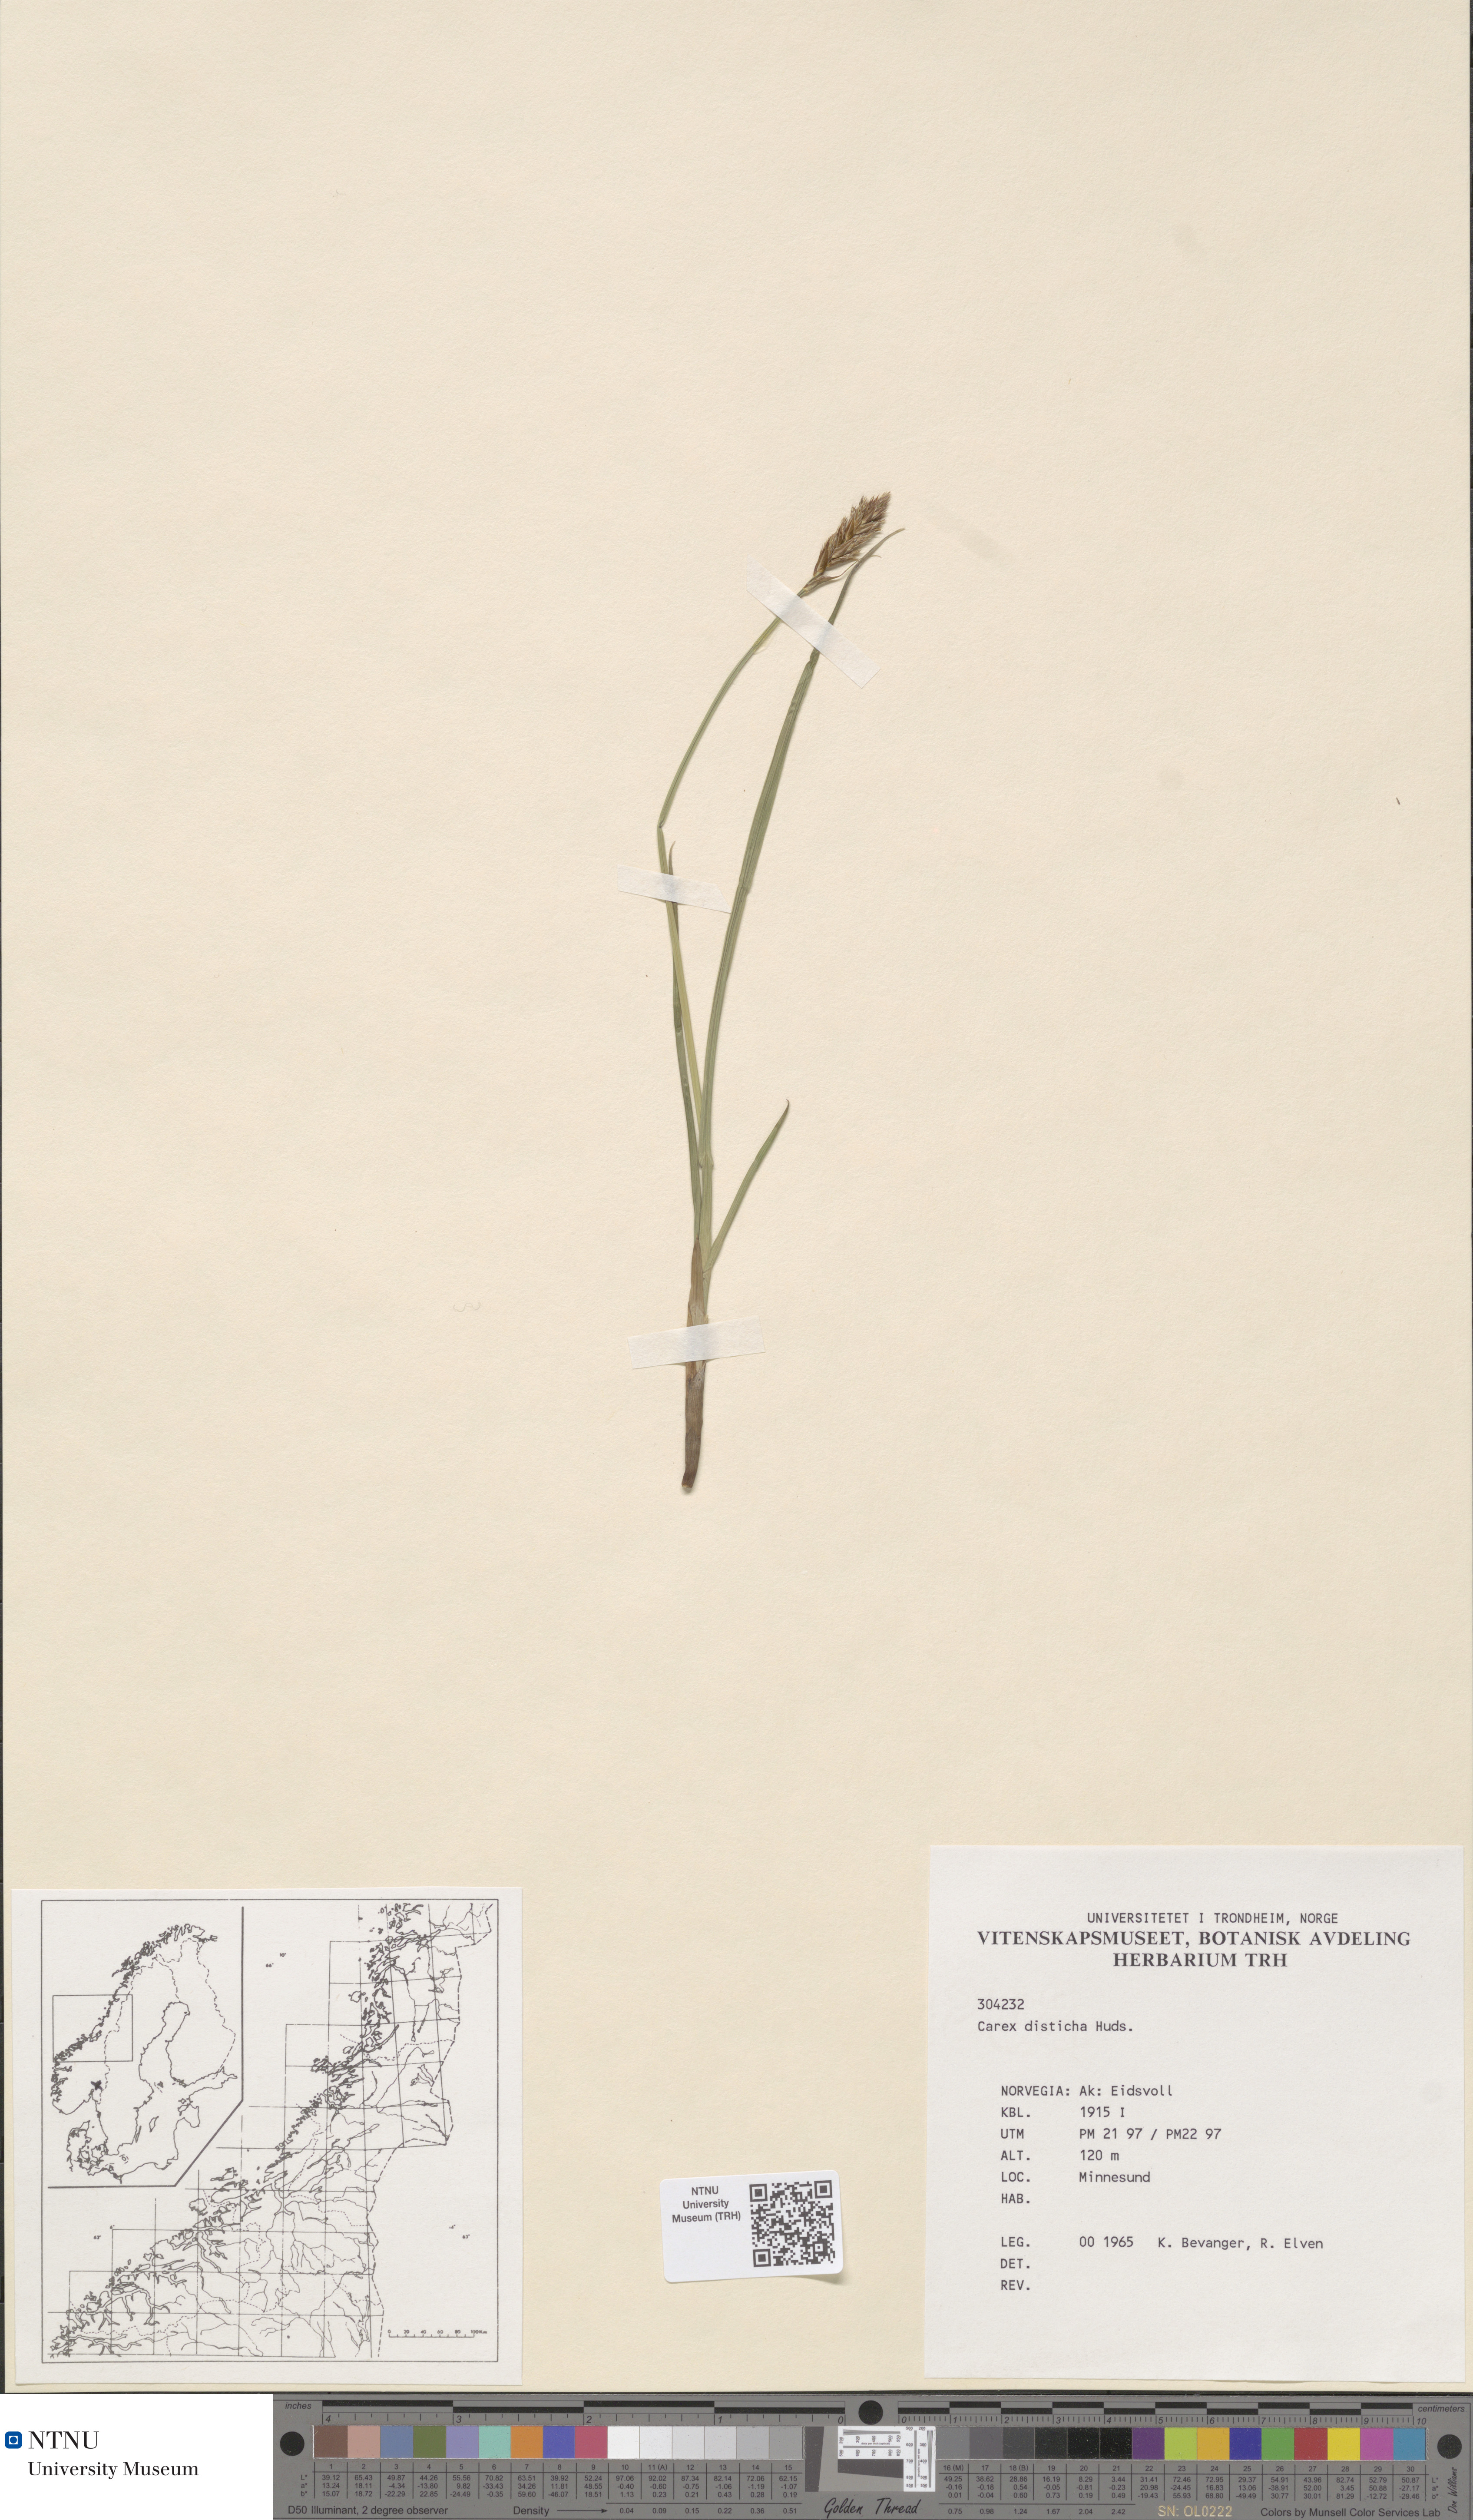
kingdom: Plantae
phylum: Tracheophyta
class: Liliopsida
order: Poales
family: Cyperaceae
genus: Carex
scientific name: Carex disticha
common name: Brown sedge
